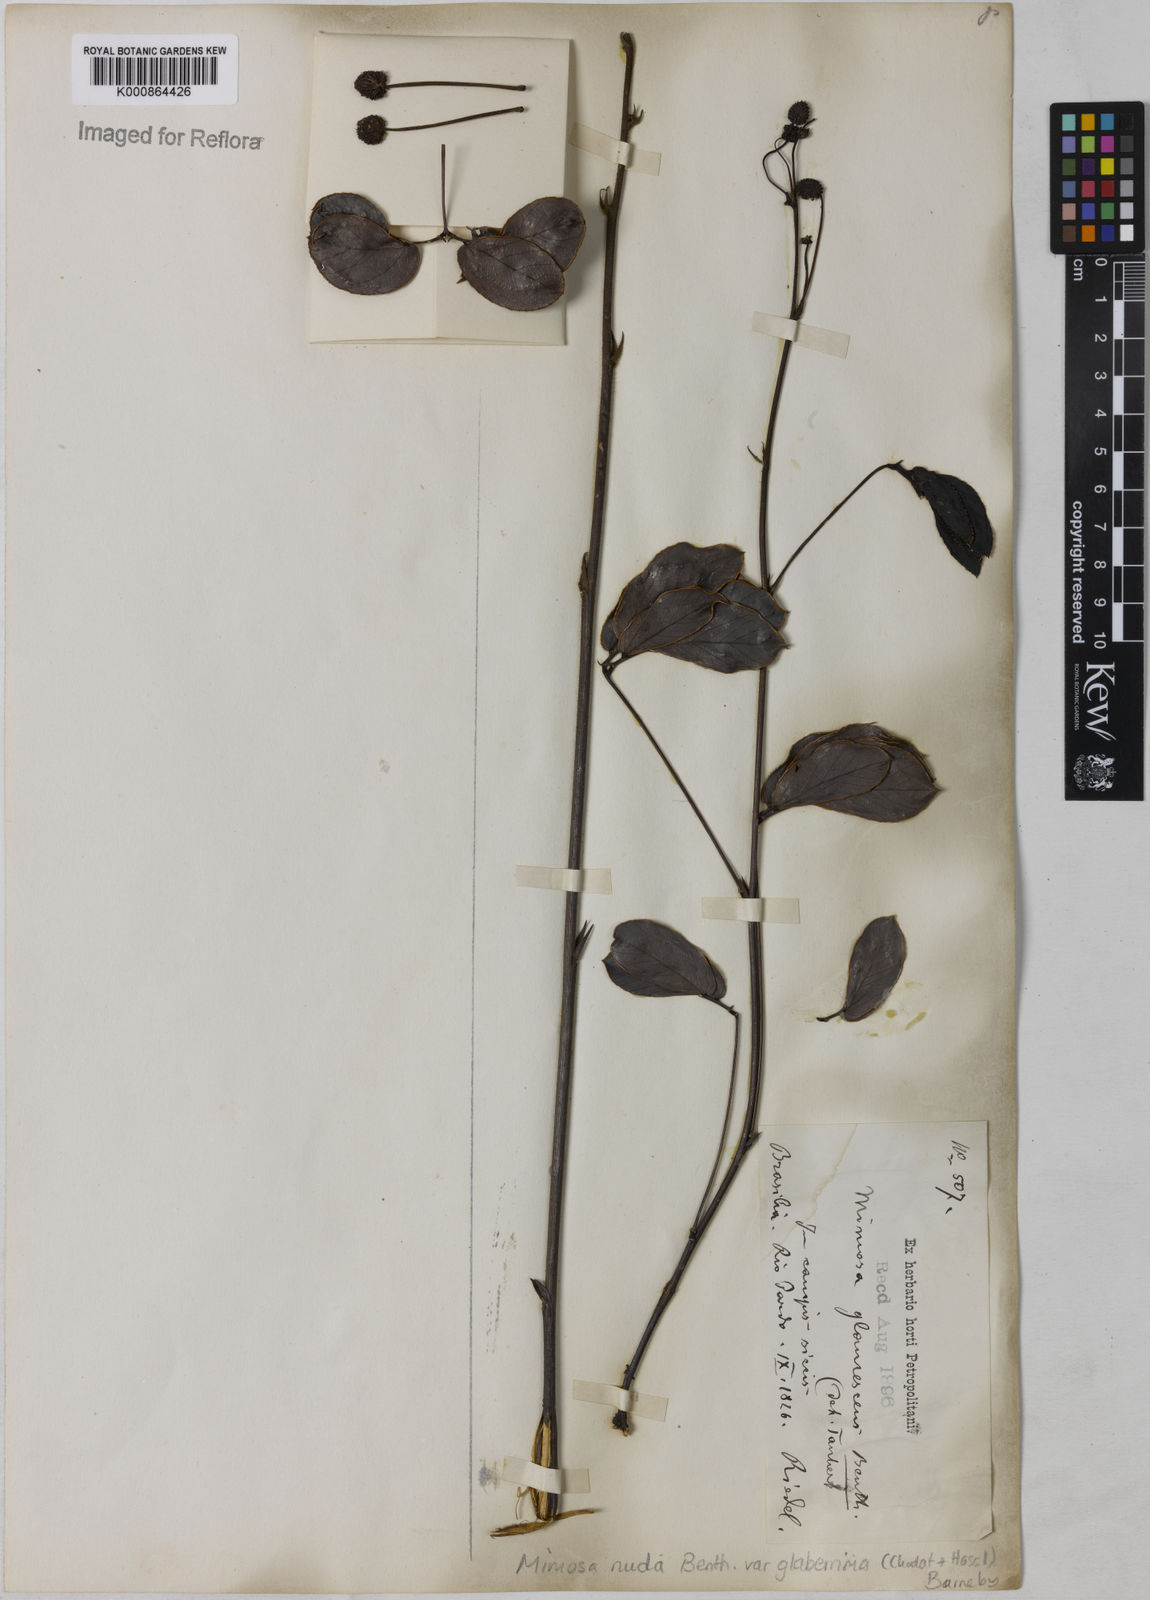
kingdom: Plantae
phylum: Tracheophyta
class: Magnoliopsida
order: Fabales
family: Fabaceae
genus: Mimosa
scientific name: Mimosa debilis
